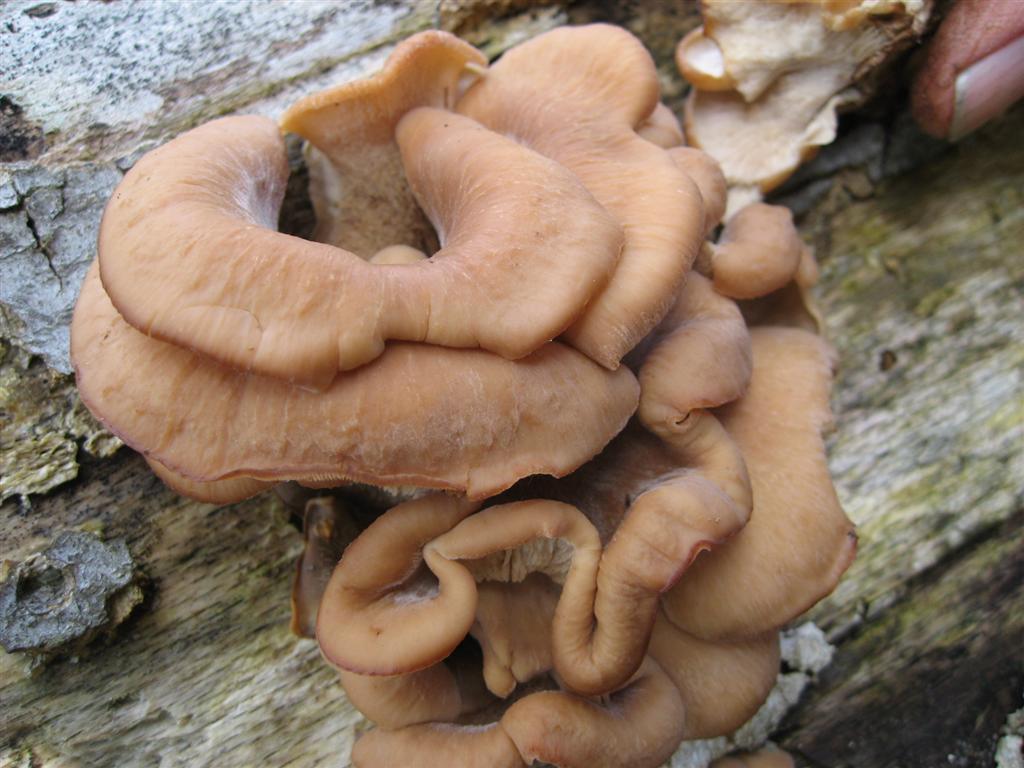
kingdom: Fungi
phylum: Basidiomycota
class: Agaricomycetes
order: Russulales
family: Auriscalpiaceae
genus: Lentinellus
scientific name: Lentinellus ursinus
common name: børstehåret savbladhat
